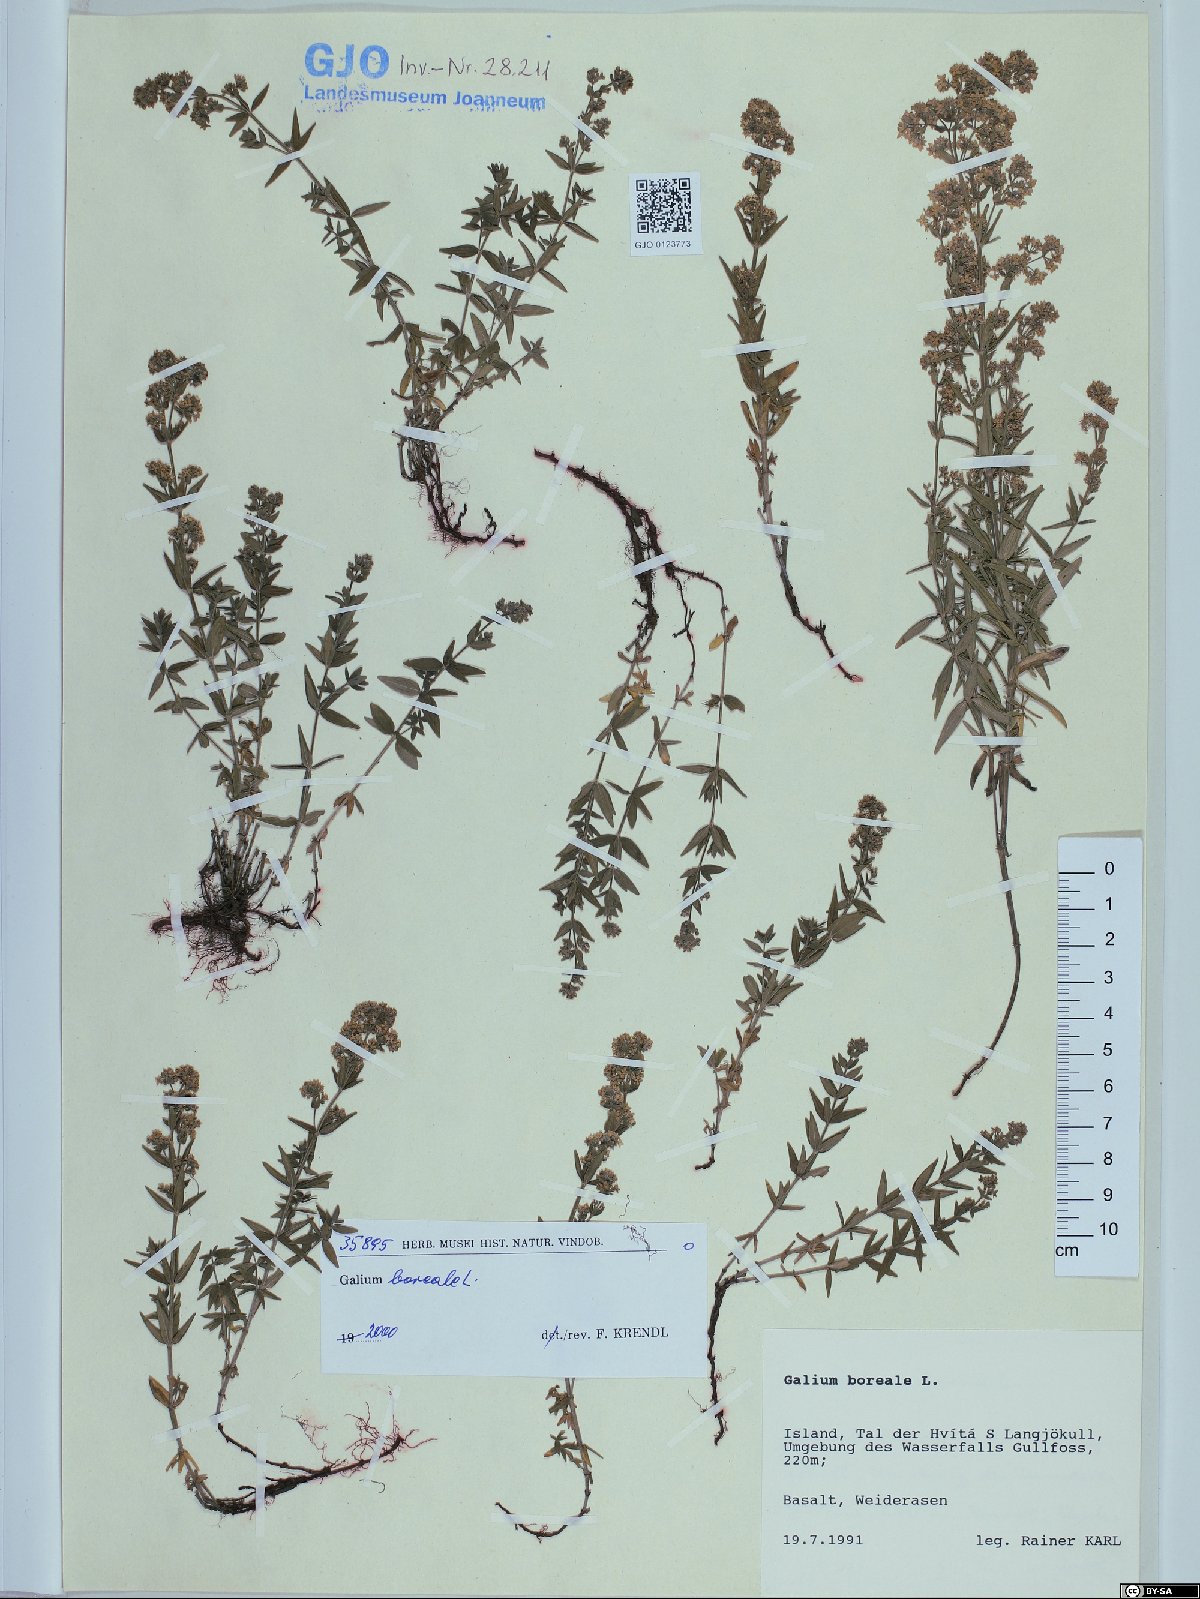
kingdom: Plantae
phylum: Tracheophyta
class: Magnoliopsida
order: Gentianales
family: Rubiaceae
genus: Galium
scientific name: Galium boreale
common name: Northern bedstraw
